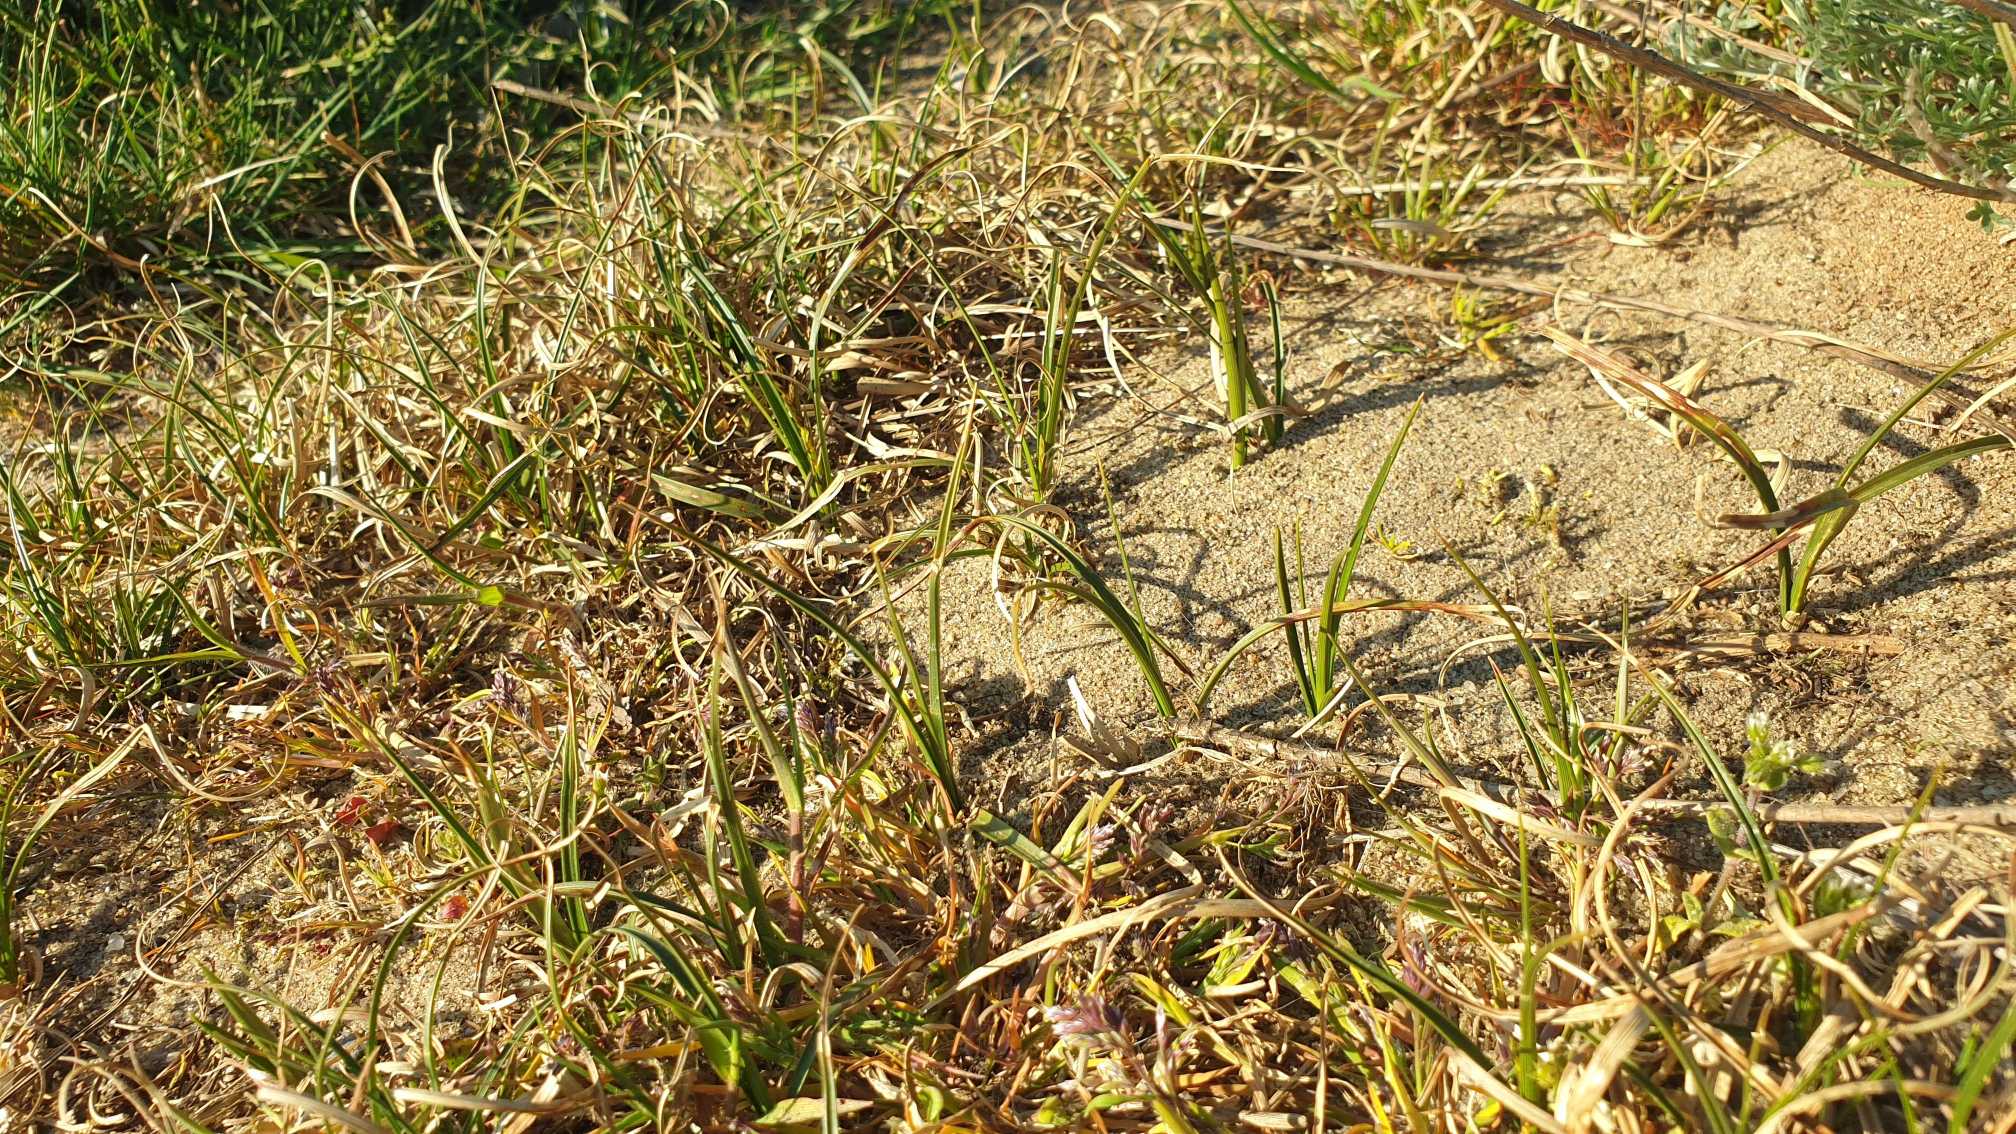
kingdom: Plantae
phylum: Tracheophyta
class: Liliopsida
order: Poales
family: Cyperaceae
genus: Carex
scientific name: Carex arenaria
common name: Sand-star
